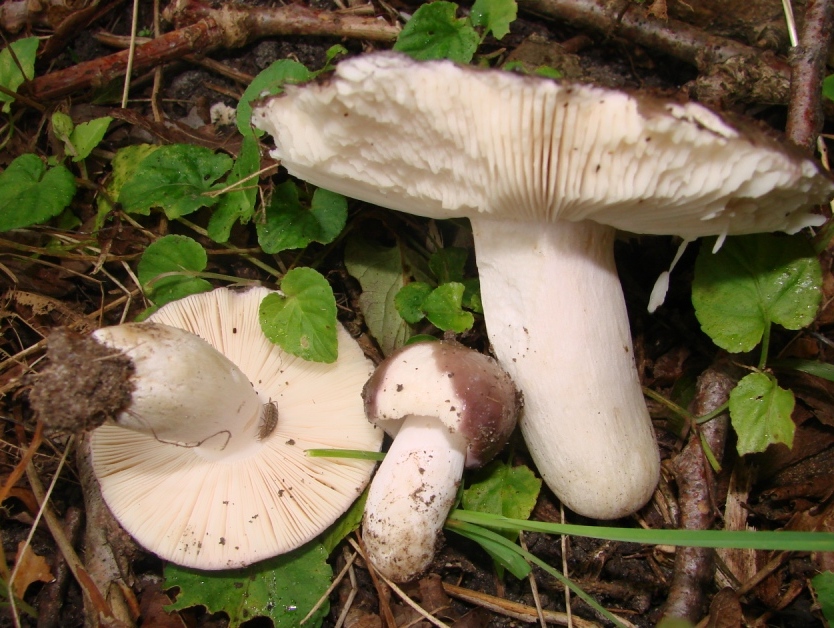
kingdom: Fungi
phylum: Basidiomycota
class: Agaricomycetes
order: Russulales
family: Russulaceae
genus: Russula
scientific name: Russula grisea
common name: grålig skørhat
